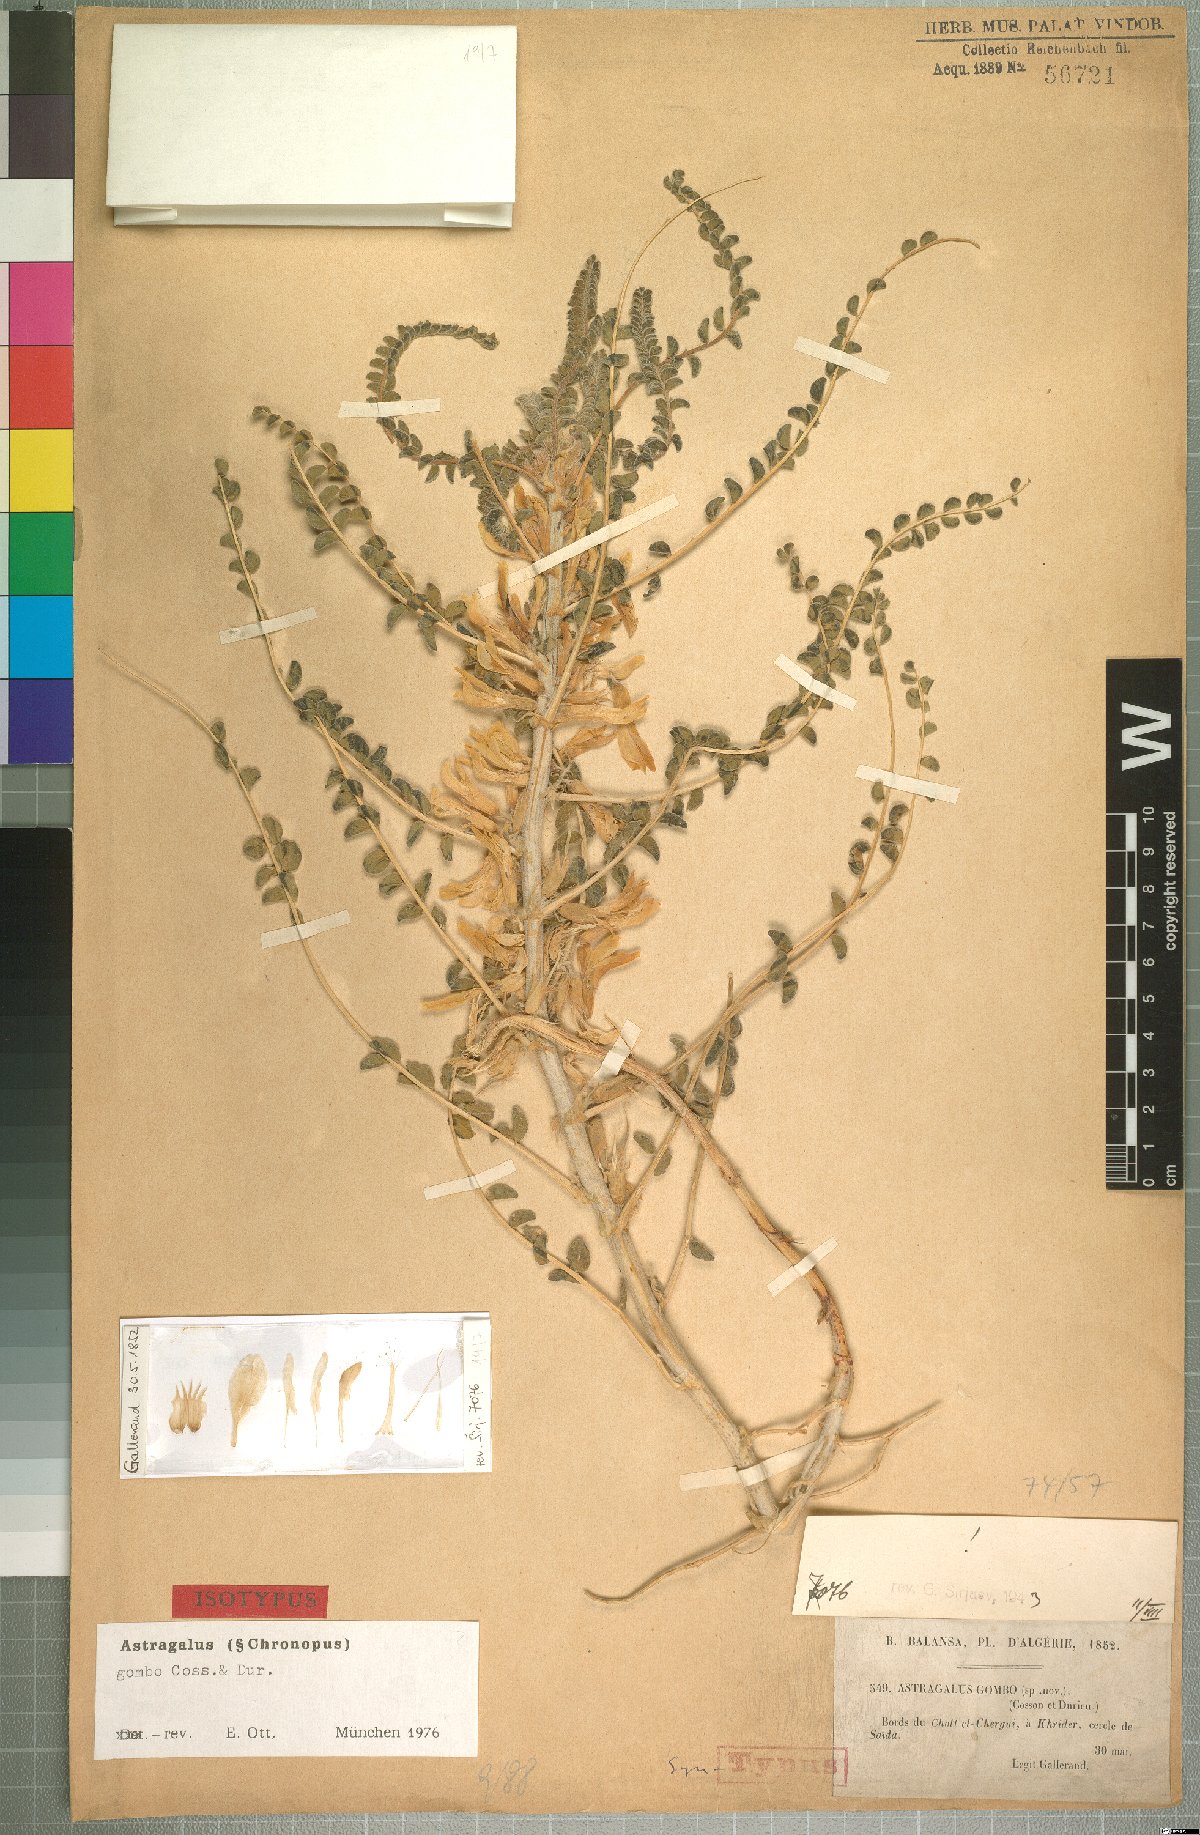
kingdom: Plantae
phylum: Tracheophyta
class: Magnoliopsida
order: Fabales
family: Fabaceae
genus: Astragalus
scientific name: Astragalus gombo
